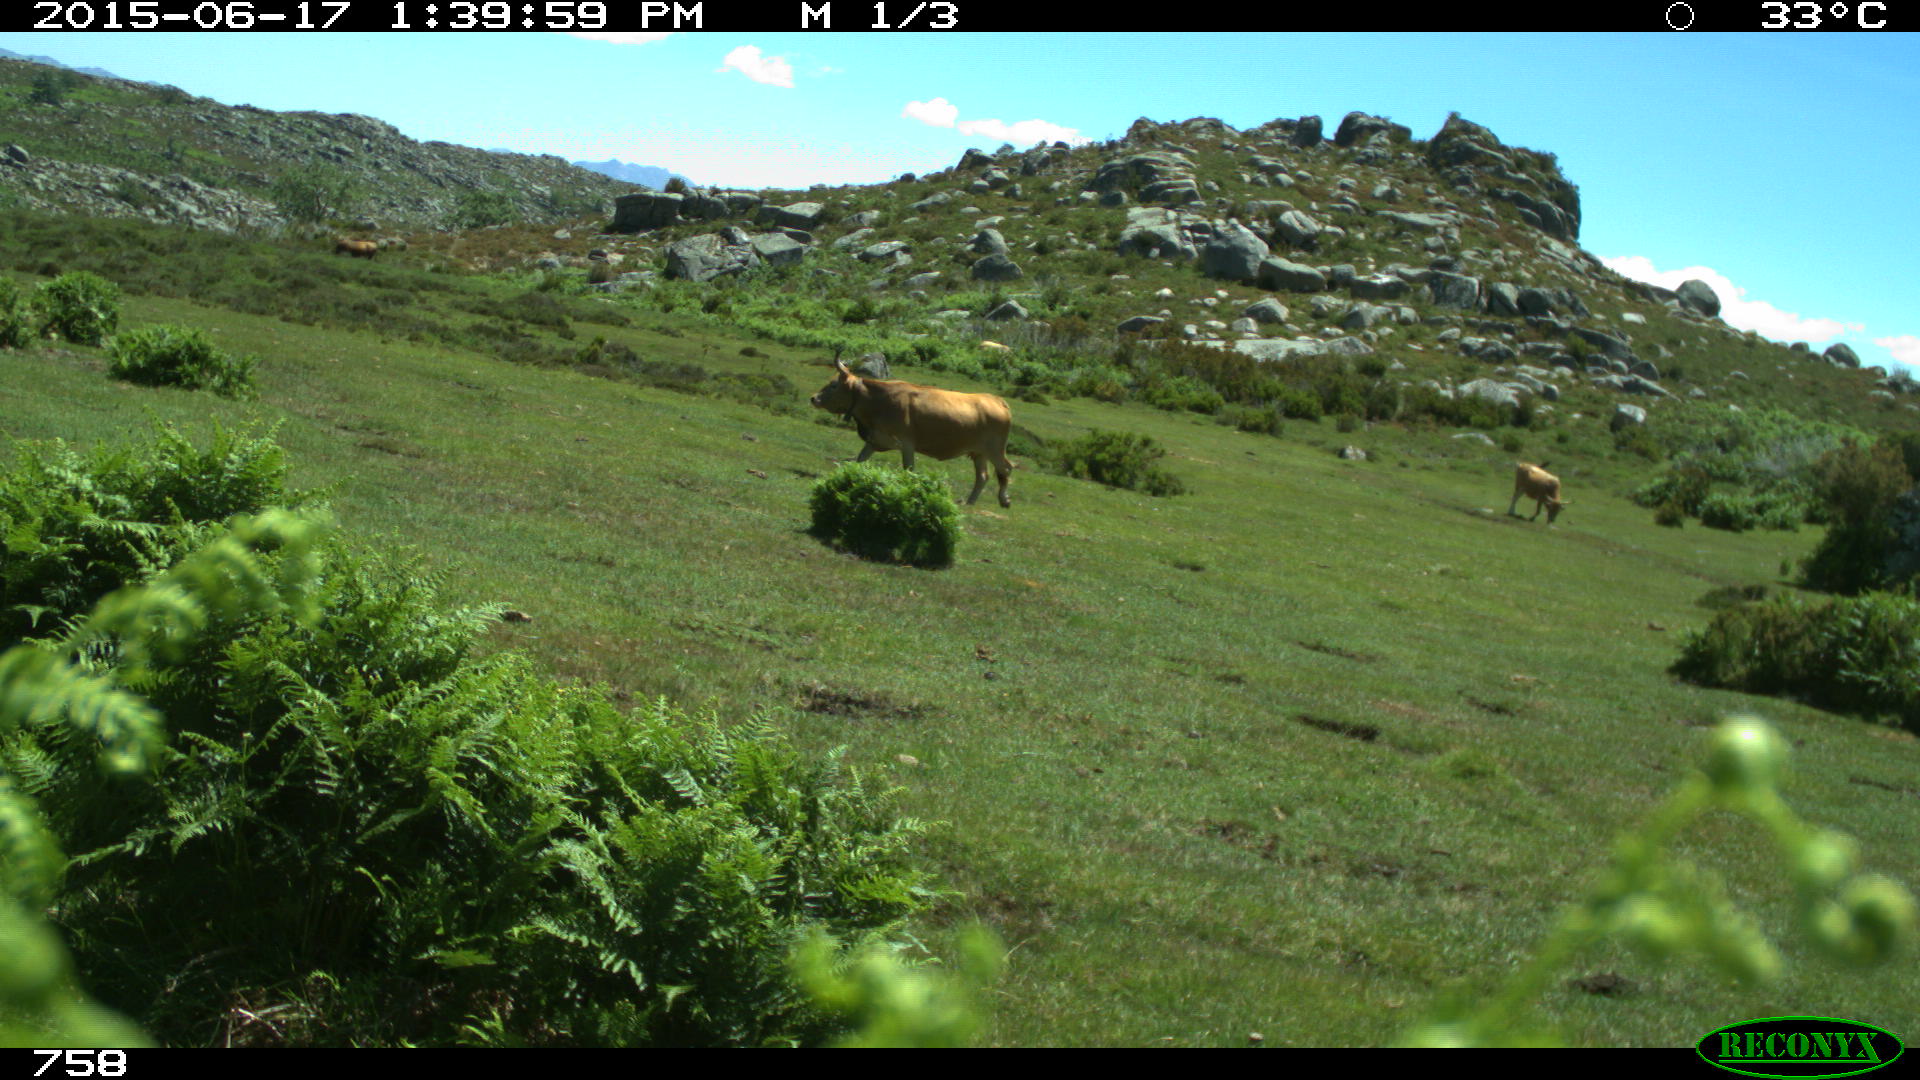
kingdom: Animalia
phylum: Chordata
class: Mammalia
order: Artiodactyla
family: Bovidae
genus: Bos
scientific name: Bos taurus
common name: Domesticated cattle
